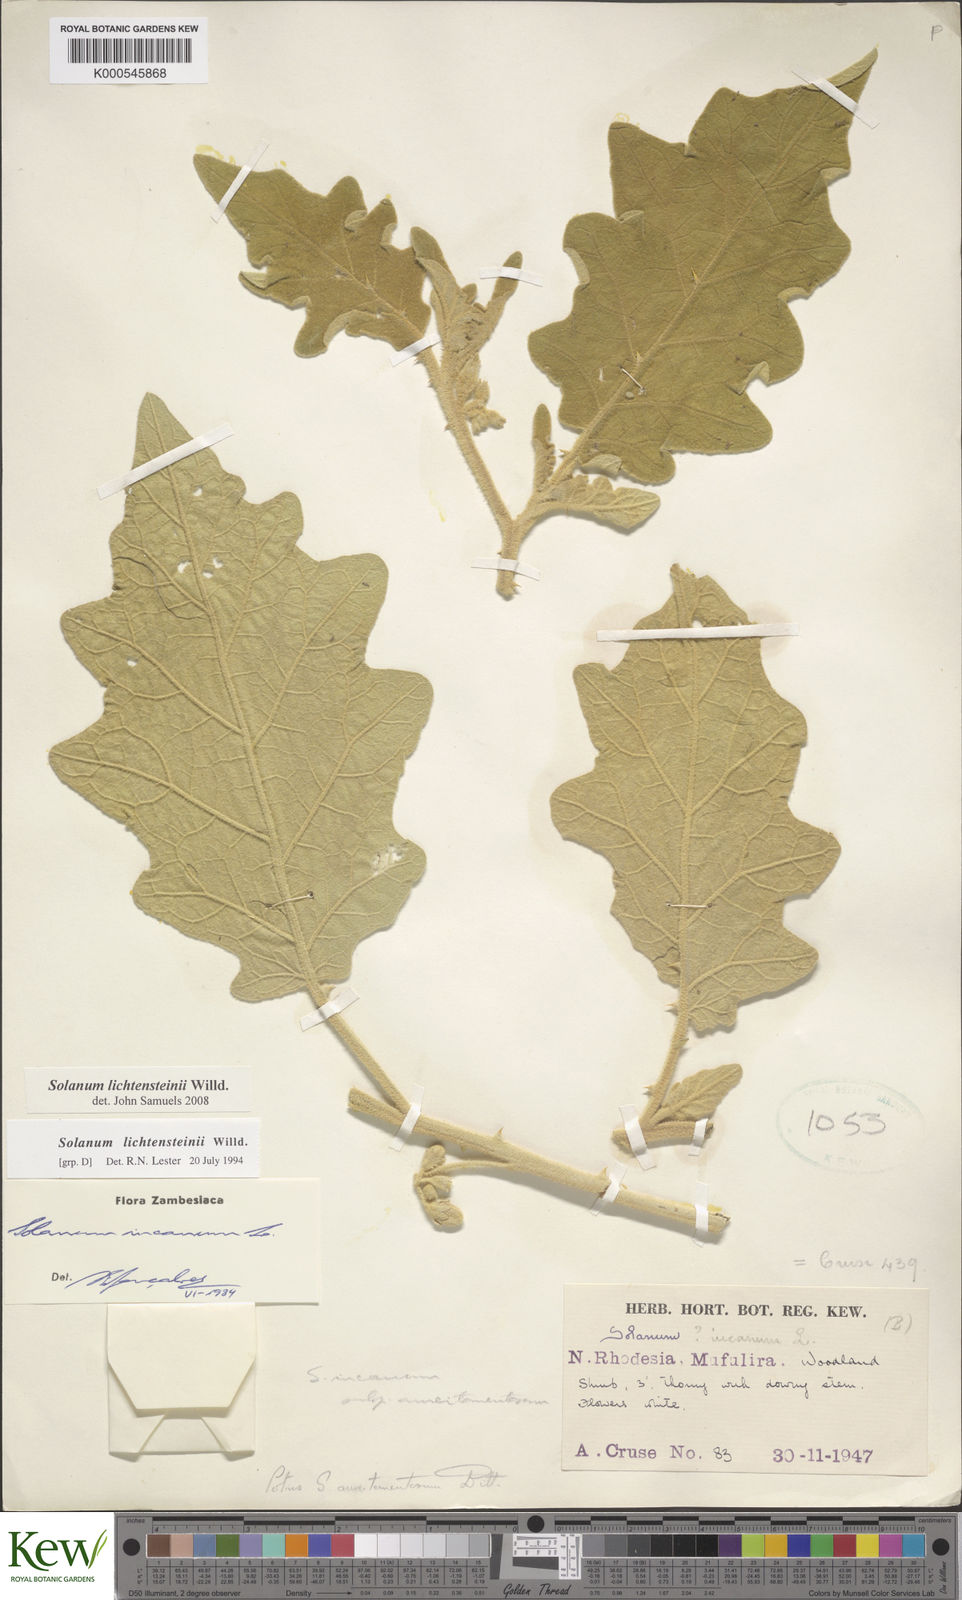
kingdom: Plantae
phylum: Tracheophyta
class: Magnoliopsida
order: Solanales
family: Solanaceae
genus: Solanum
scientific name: Solanum lichtensteinii
